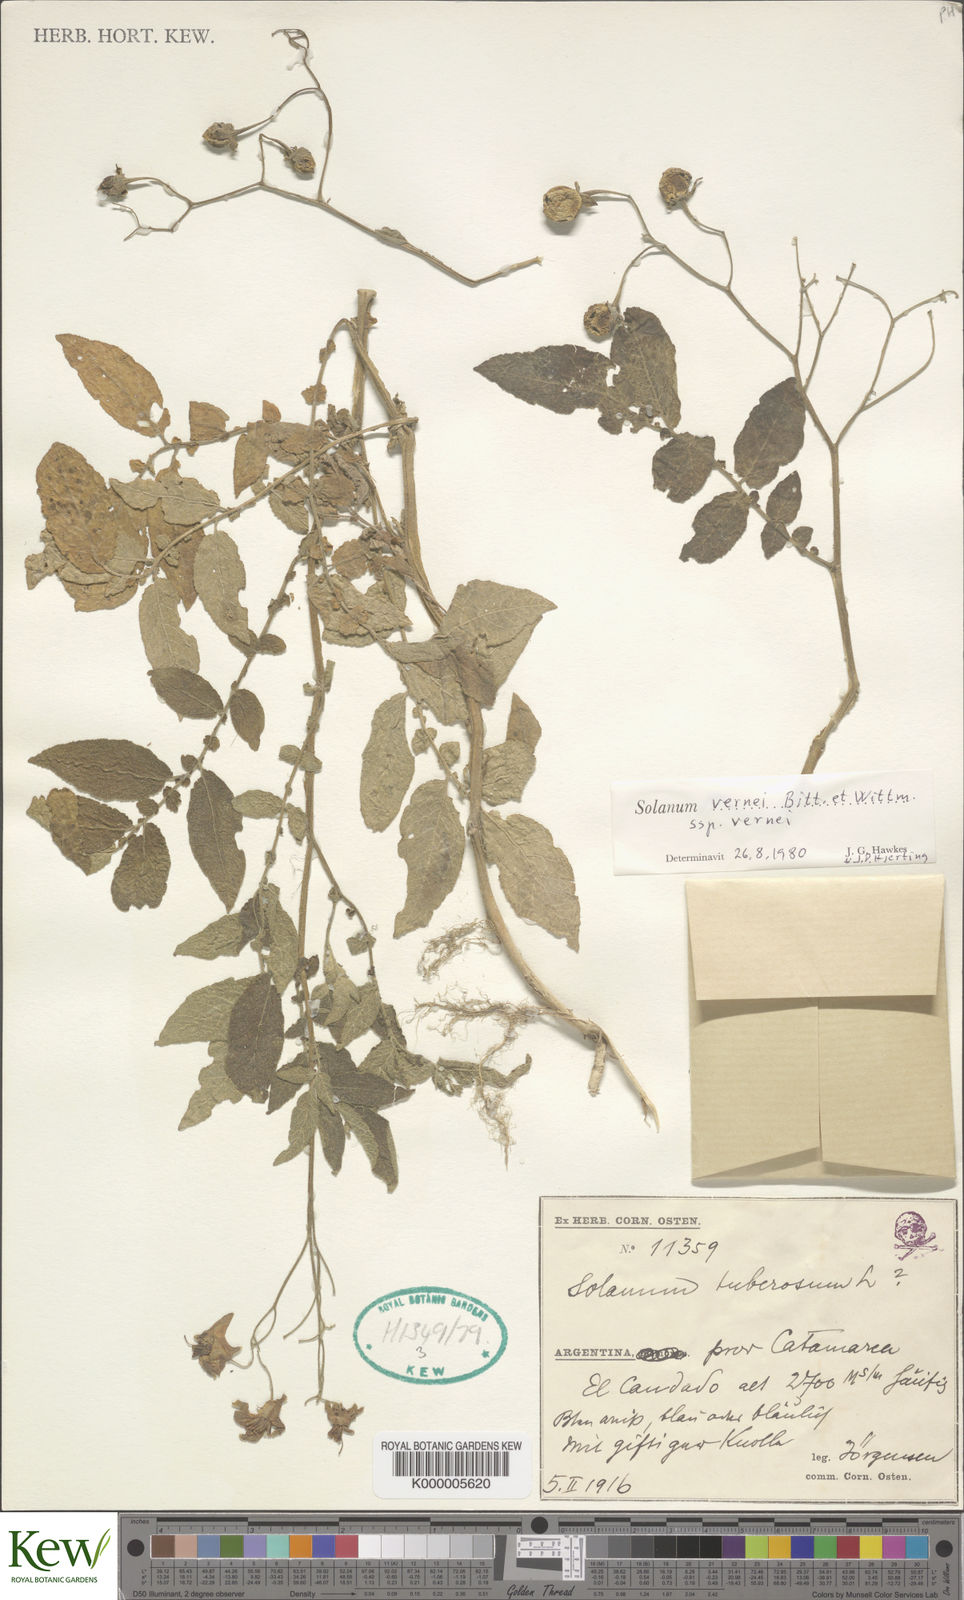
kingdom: Plantae
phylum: Tracheophyta
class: Magnoliopsida
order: Solanales
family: Solanaceae
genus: Solanum
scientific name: Solanum vernei
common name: Purple potato
